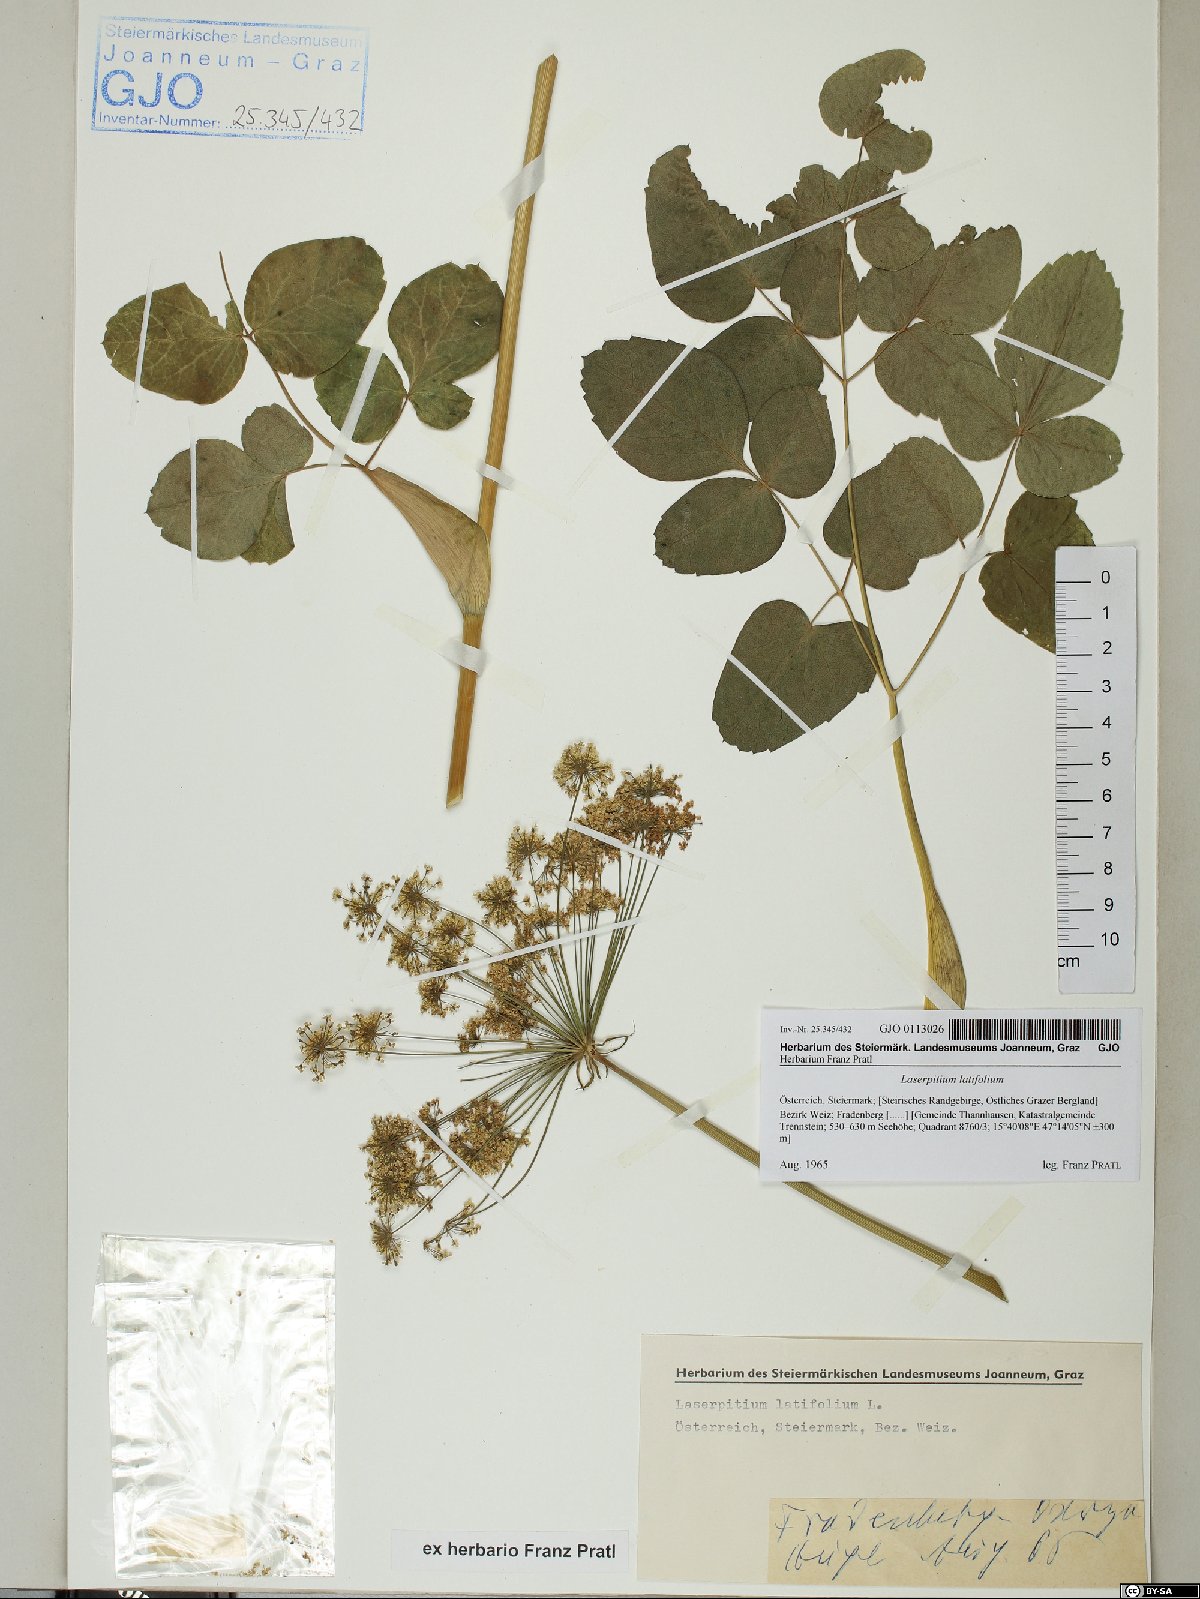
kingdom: Plantae
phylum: Tracheophyta
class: Magnoliopsida
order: Apiales
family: Apiaceae
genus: Laserpitium
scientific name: Laserpitium latifolium
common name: Broadleaf sermountain
